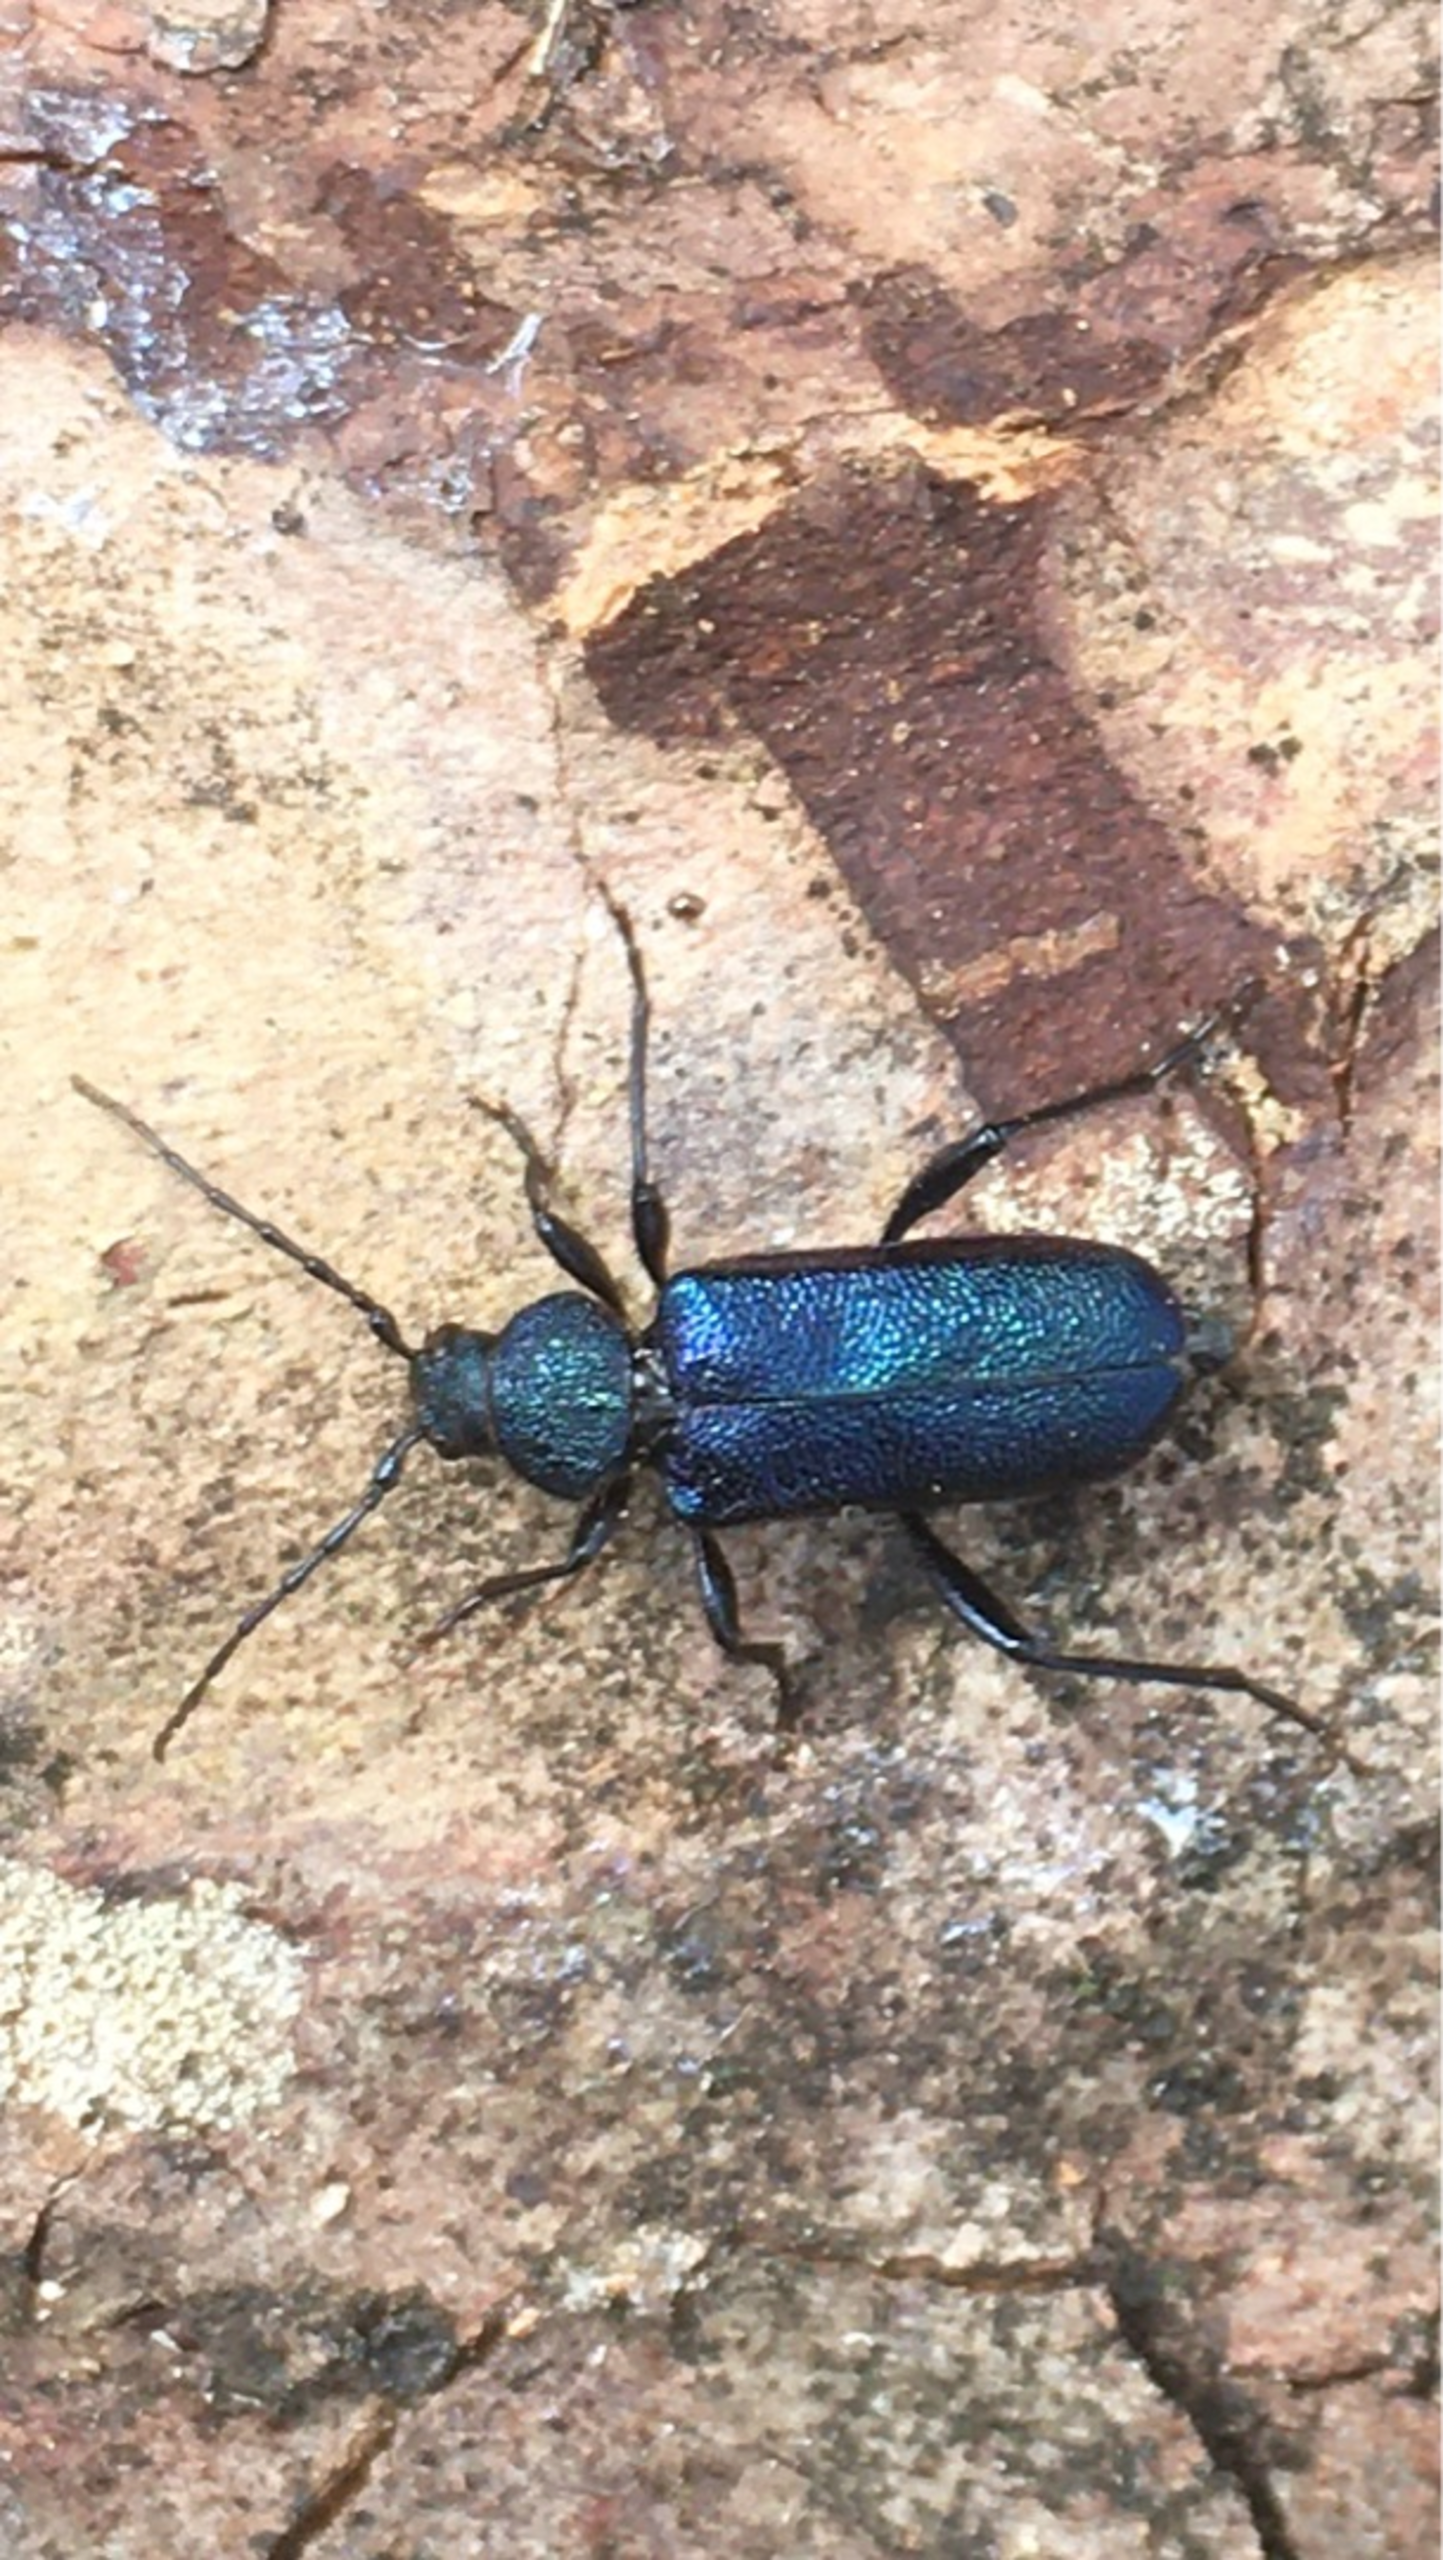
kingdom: Animalia
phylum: Arthropoda
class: Insecta
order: Coleoptera
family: Cerambycidae
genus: Agapanthia
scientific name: Agapanthia violacea
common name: Violbuk
